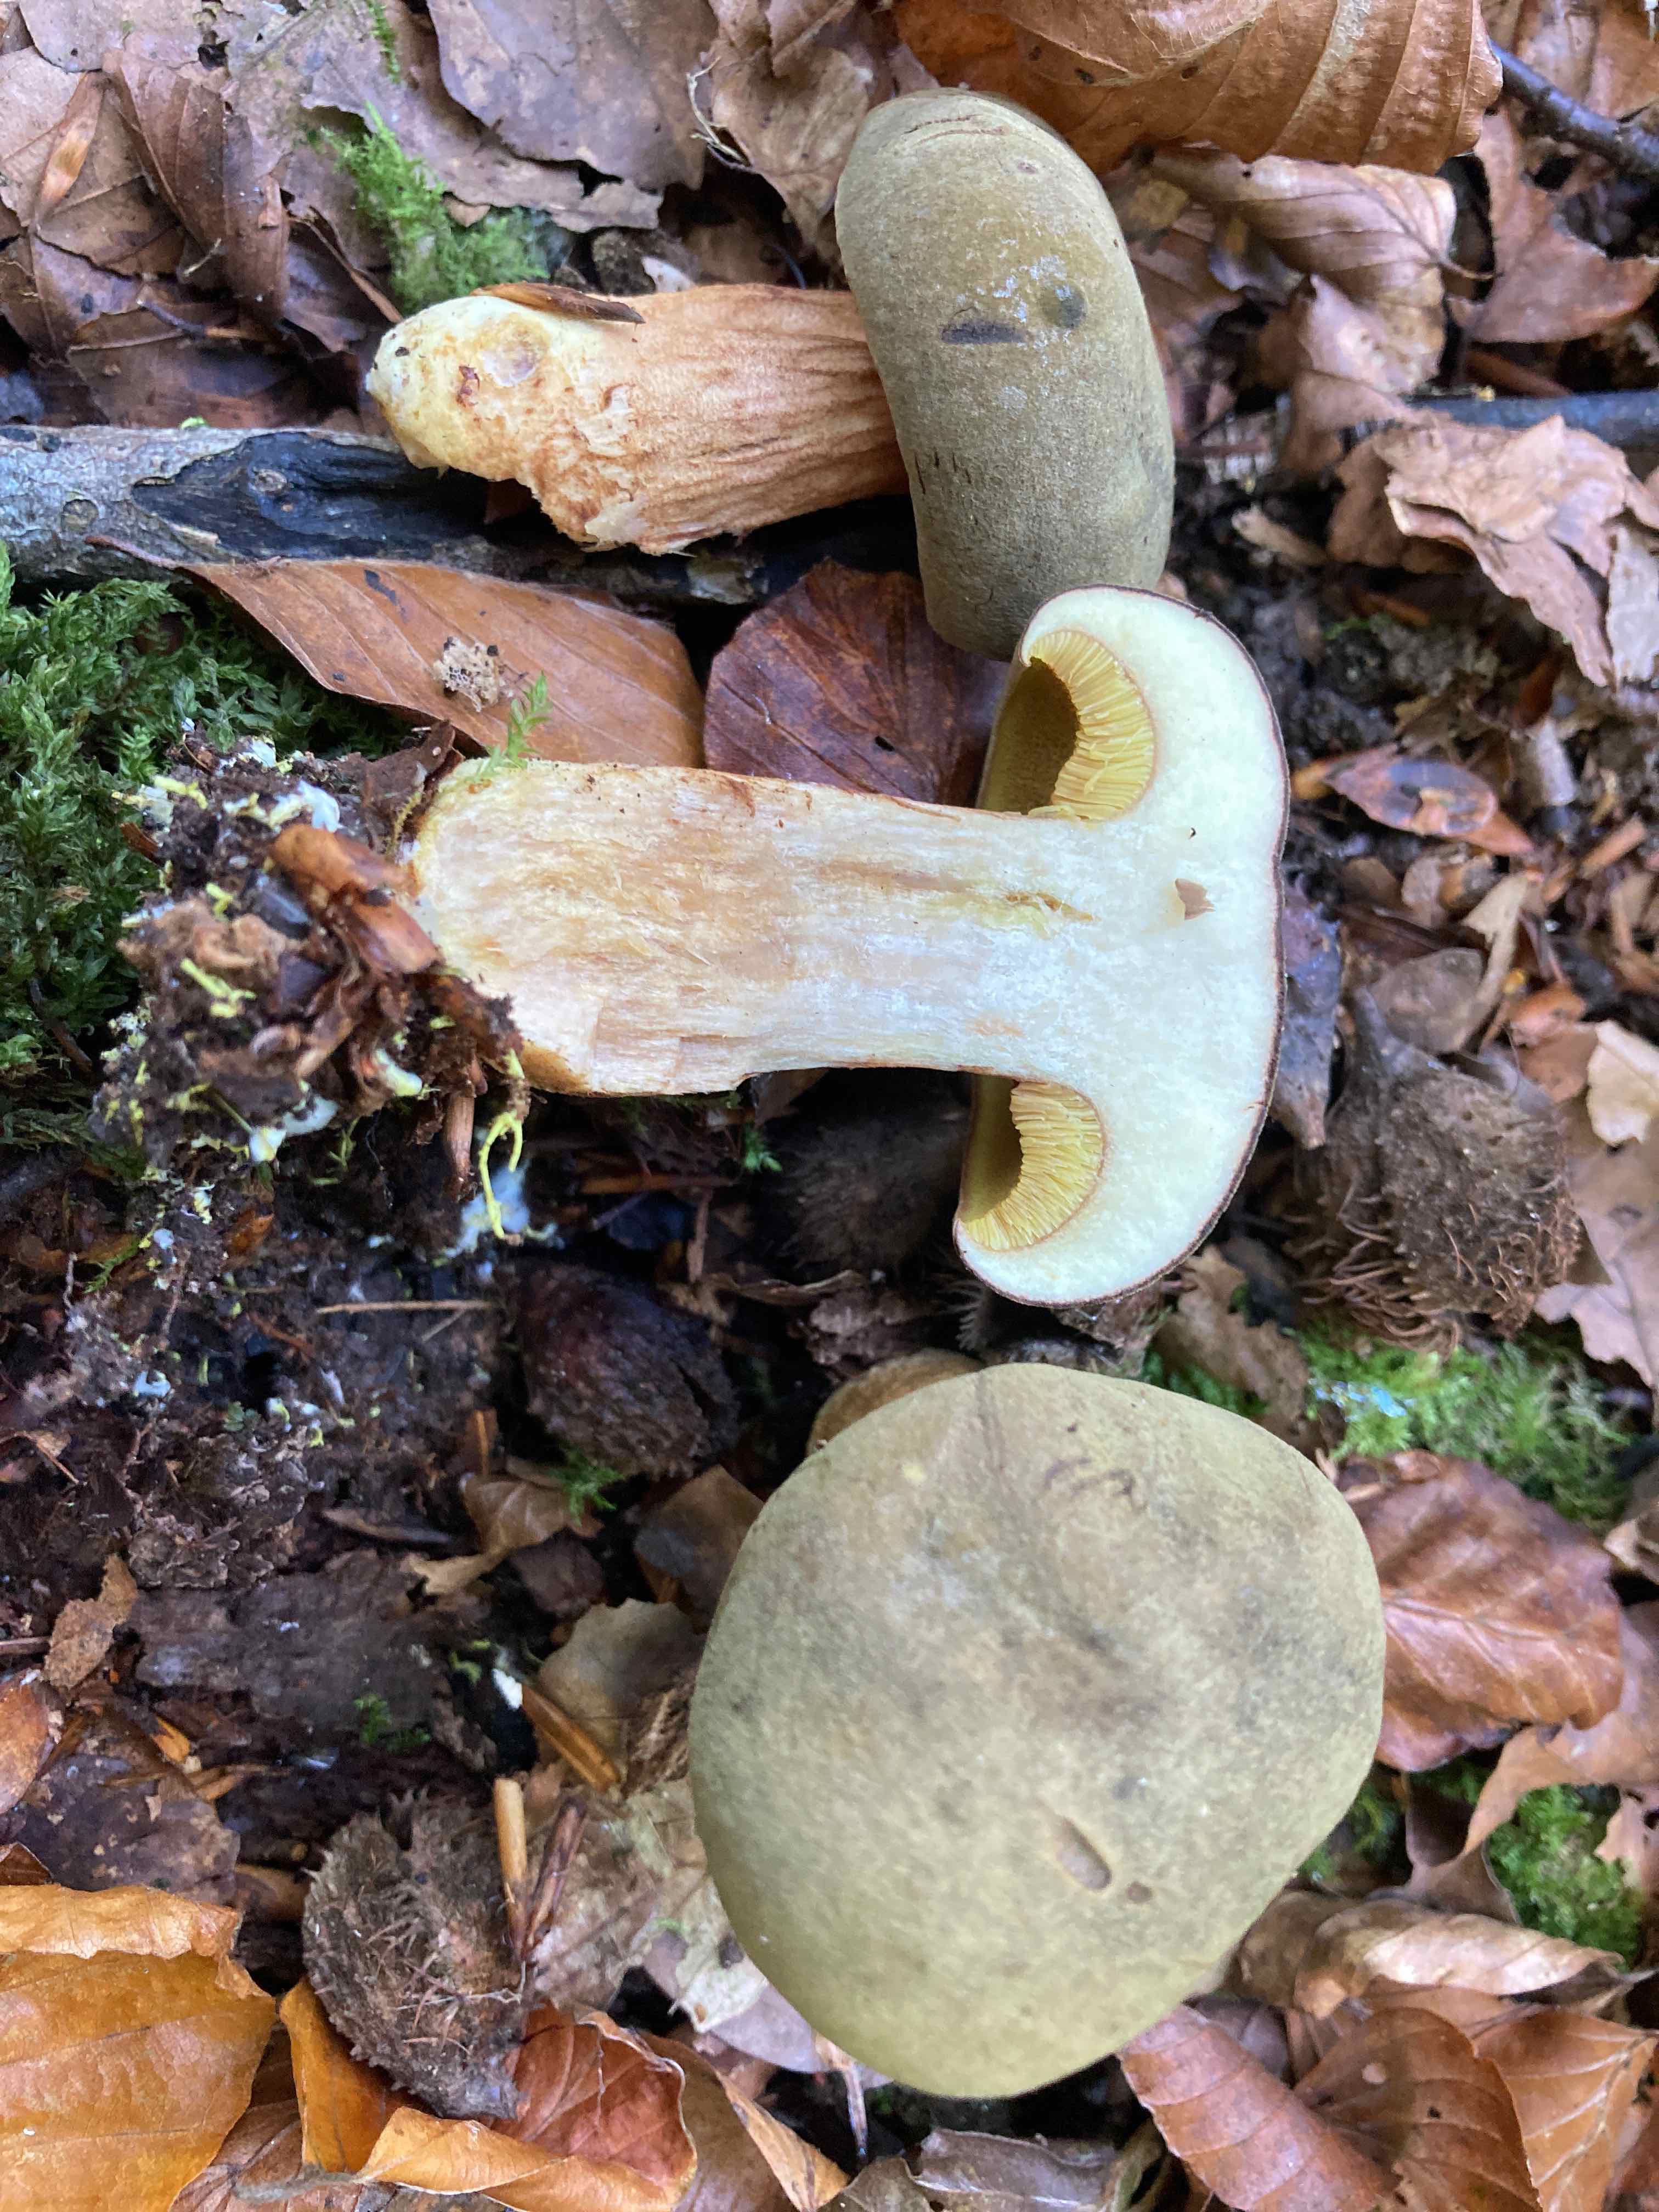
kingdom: Fungi
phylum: Basidiomycota
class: Agaricomycetes
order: Boletales
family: Boletaceae
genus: Xerocomus
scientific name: Xerocomus ferrugineus
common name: vaskeskinds-rørhat
